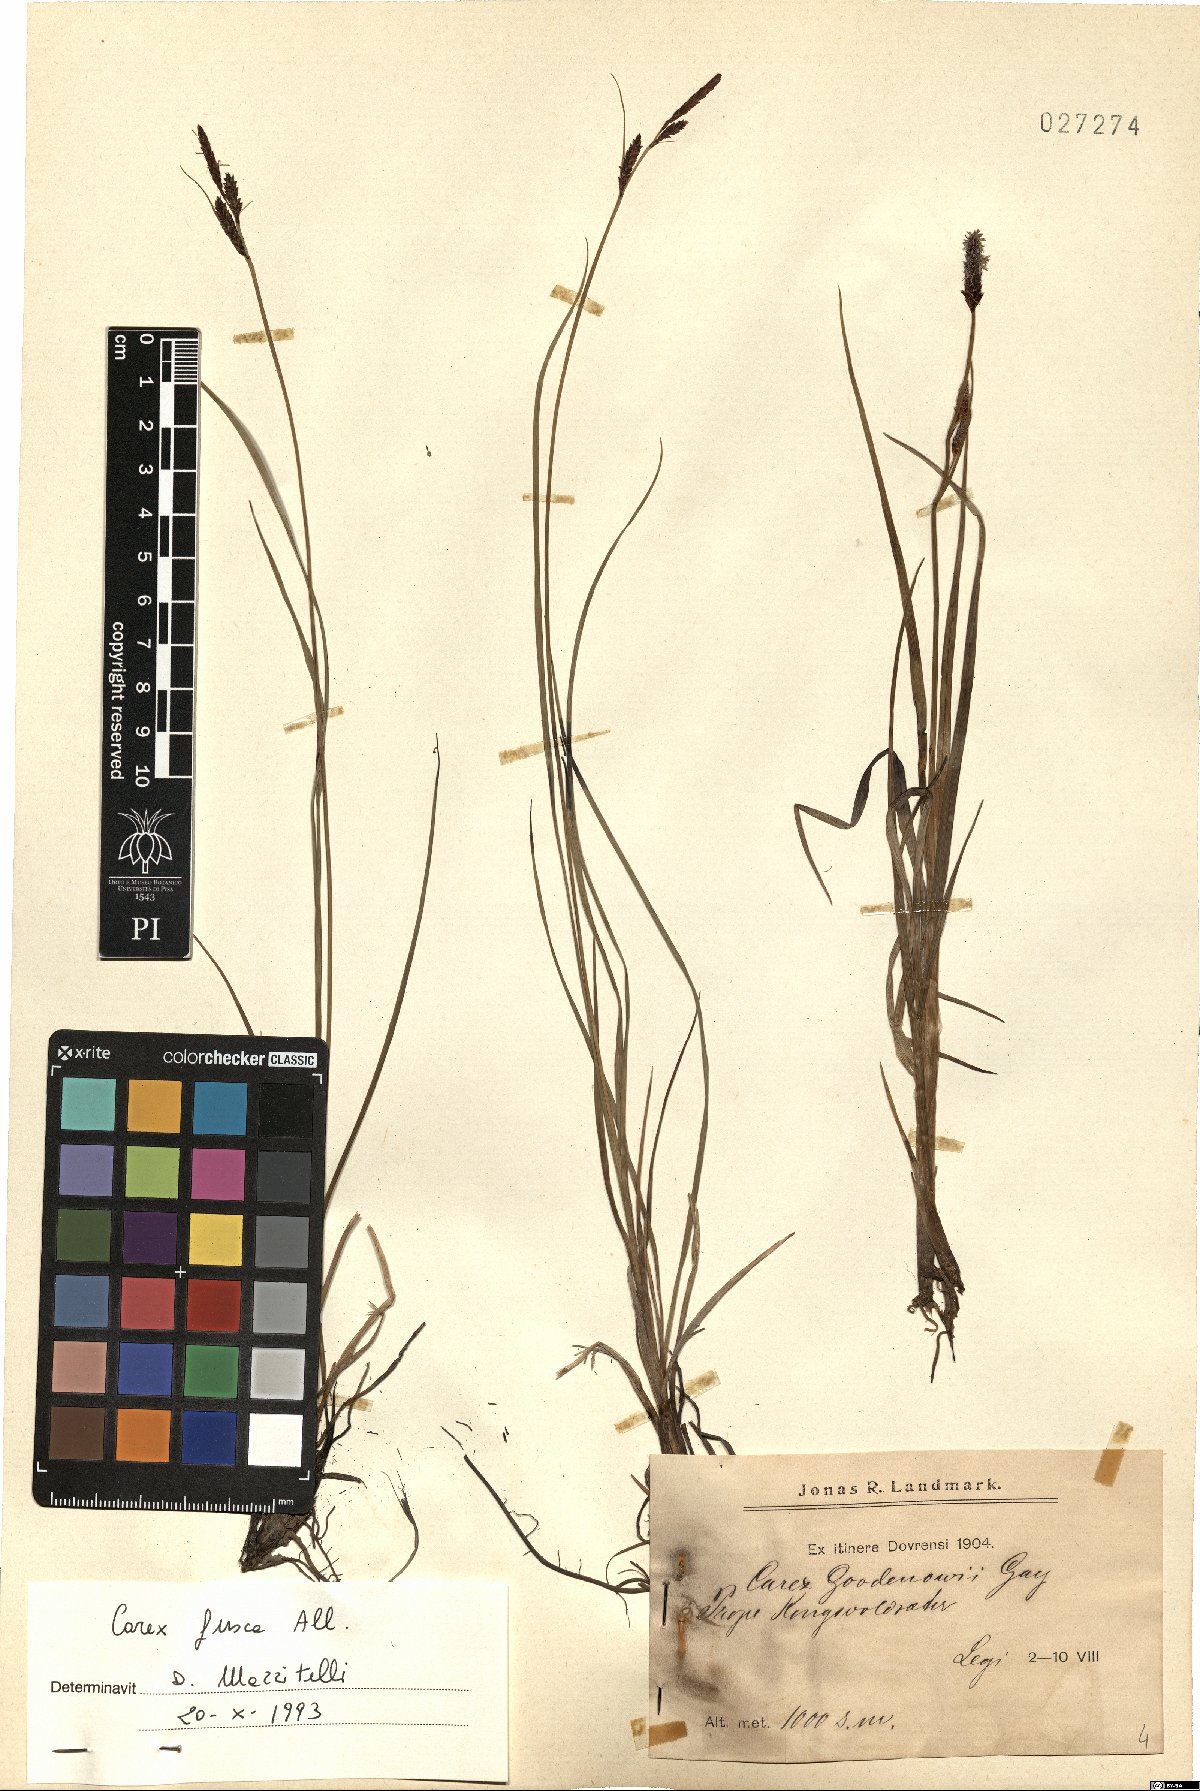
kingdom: Plantae
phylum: Tracheophyta
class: Liliopsida
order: Poales
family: Cyperaceae
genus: Carex
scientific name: Carex nigra
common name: Common sedge
